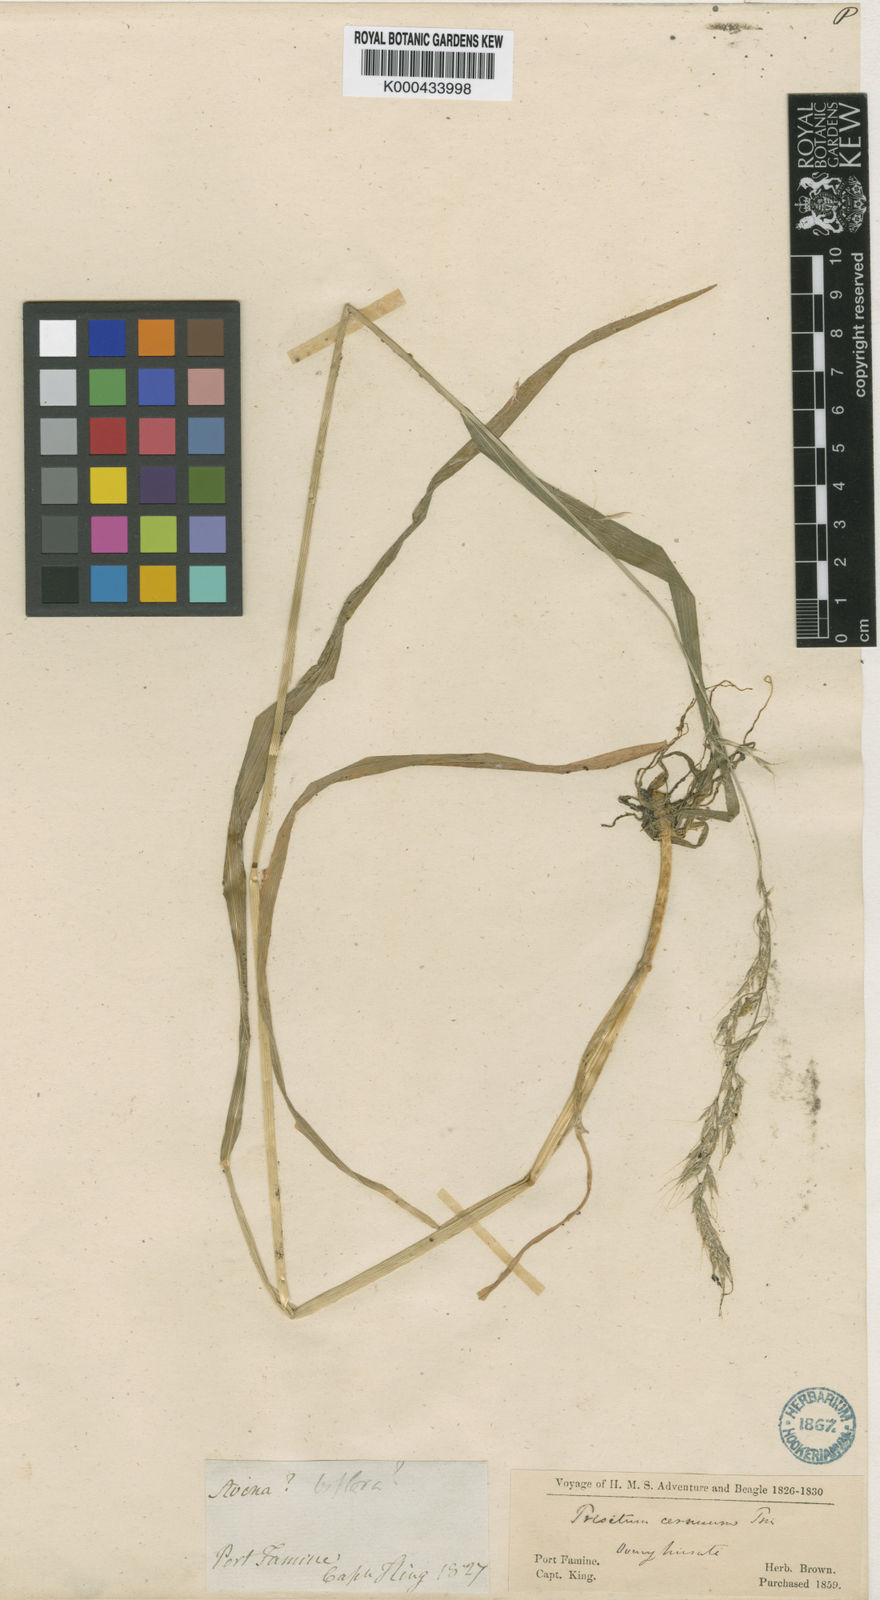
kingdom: Plantae
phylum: Tracheophyta
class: Liliopsida
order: Poales
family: Poaceae
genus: Graphephorum
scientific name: Graphephorum cernuum
